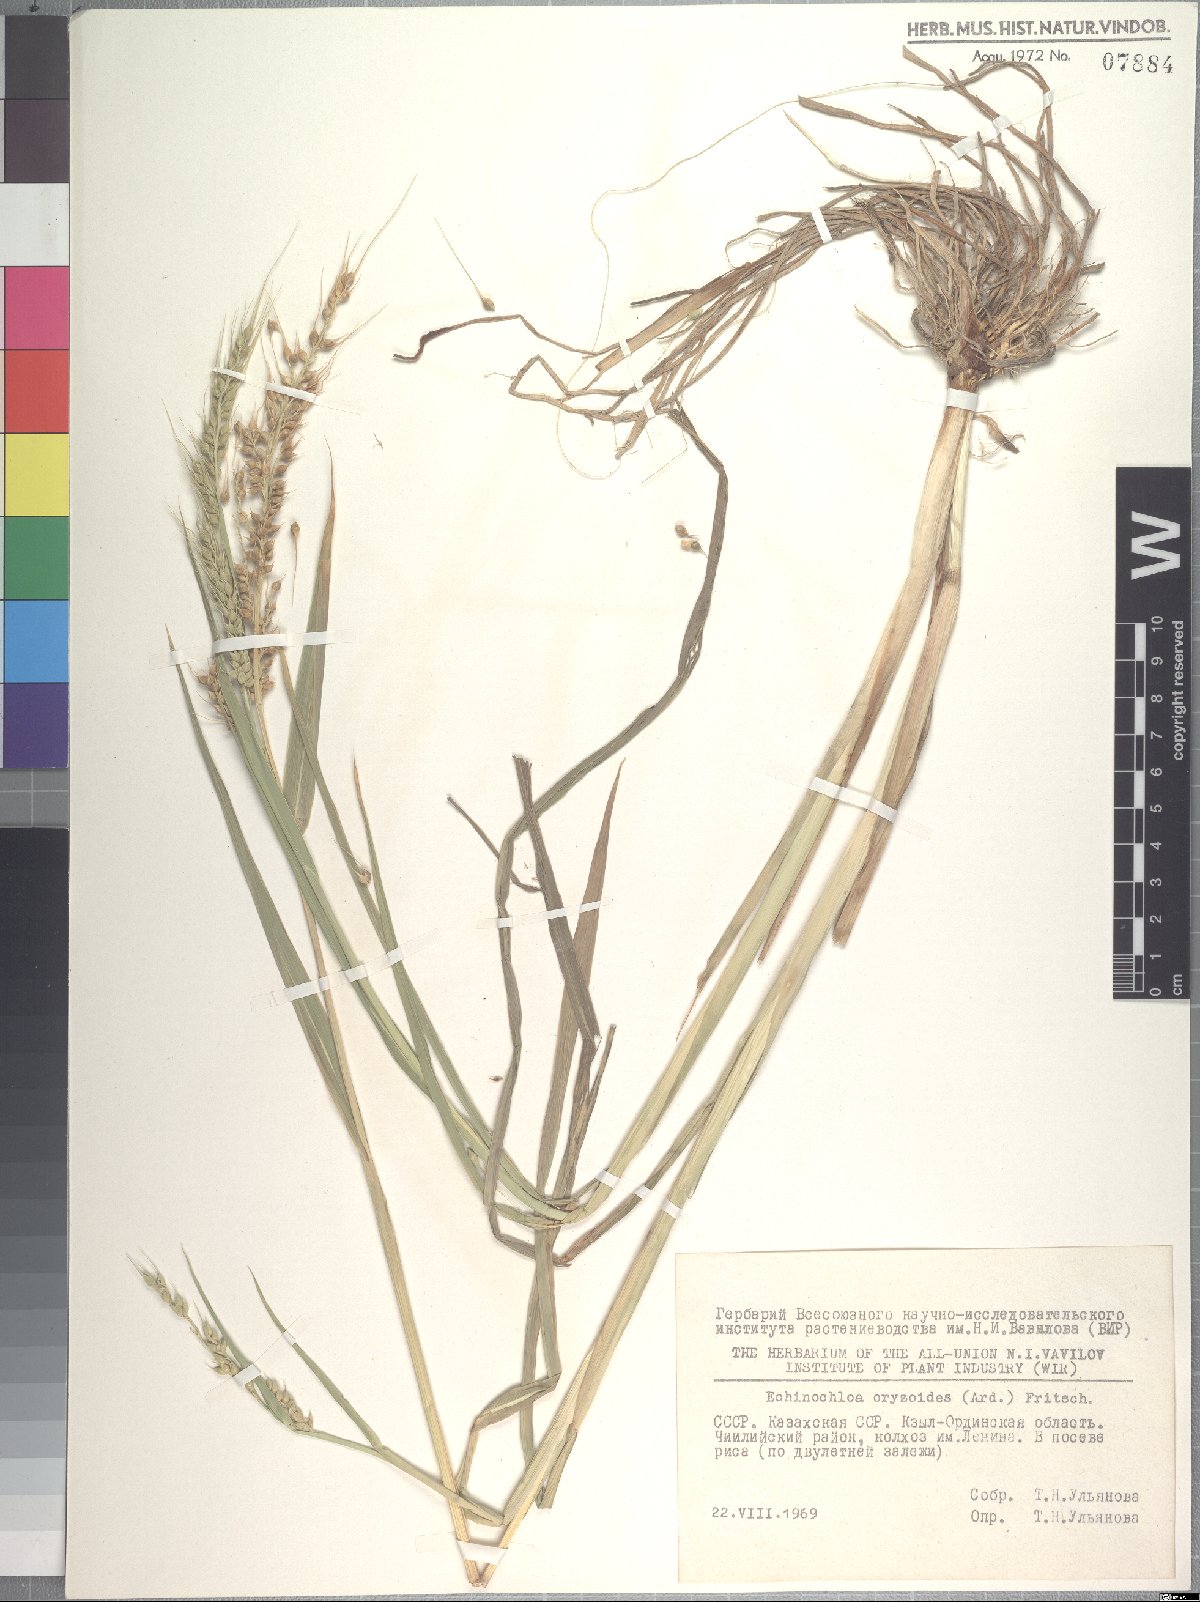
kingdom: Plantae
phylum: Tracheophyta
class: Liliopsida
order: Poales
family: Poaceae
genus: Echinochloa
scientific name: Echinochloa oryzoides
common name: Early water grass
